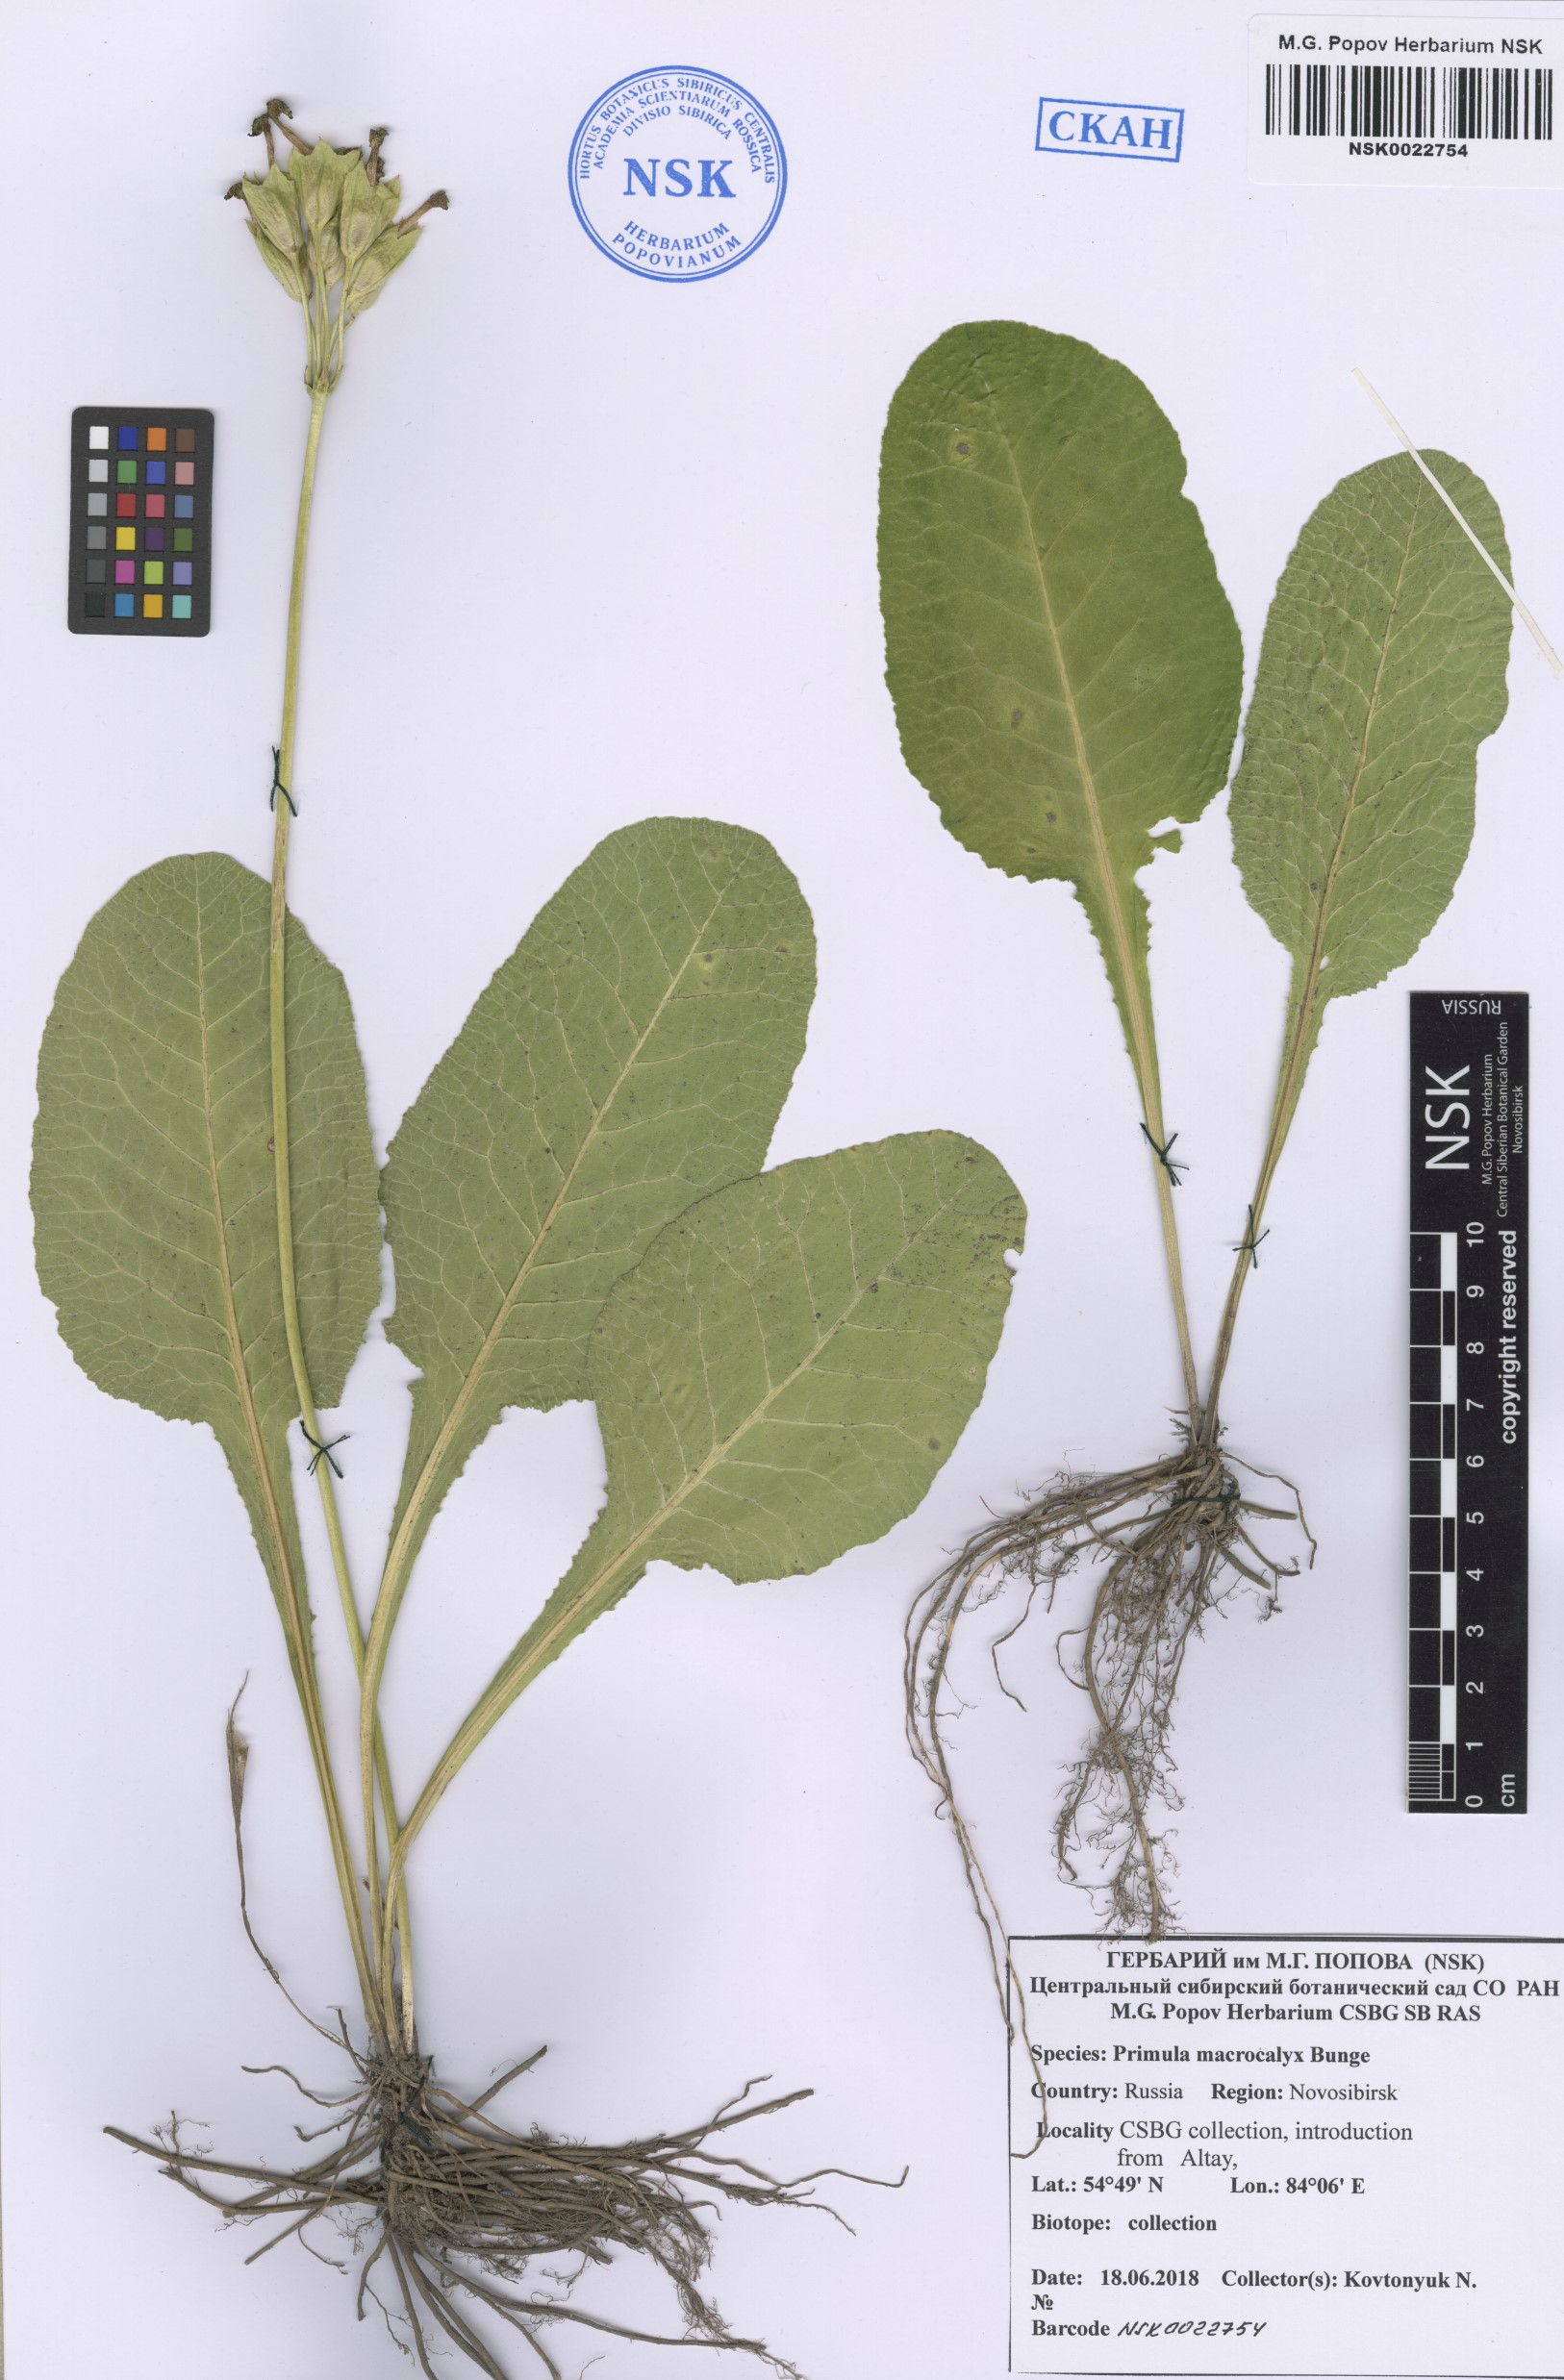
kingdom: Plantae
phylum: Tracheophyta
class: Magnoliopsida
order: Ericales
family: Primulaceae
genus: Primula
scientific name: Primula veris
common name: Cowslip
